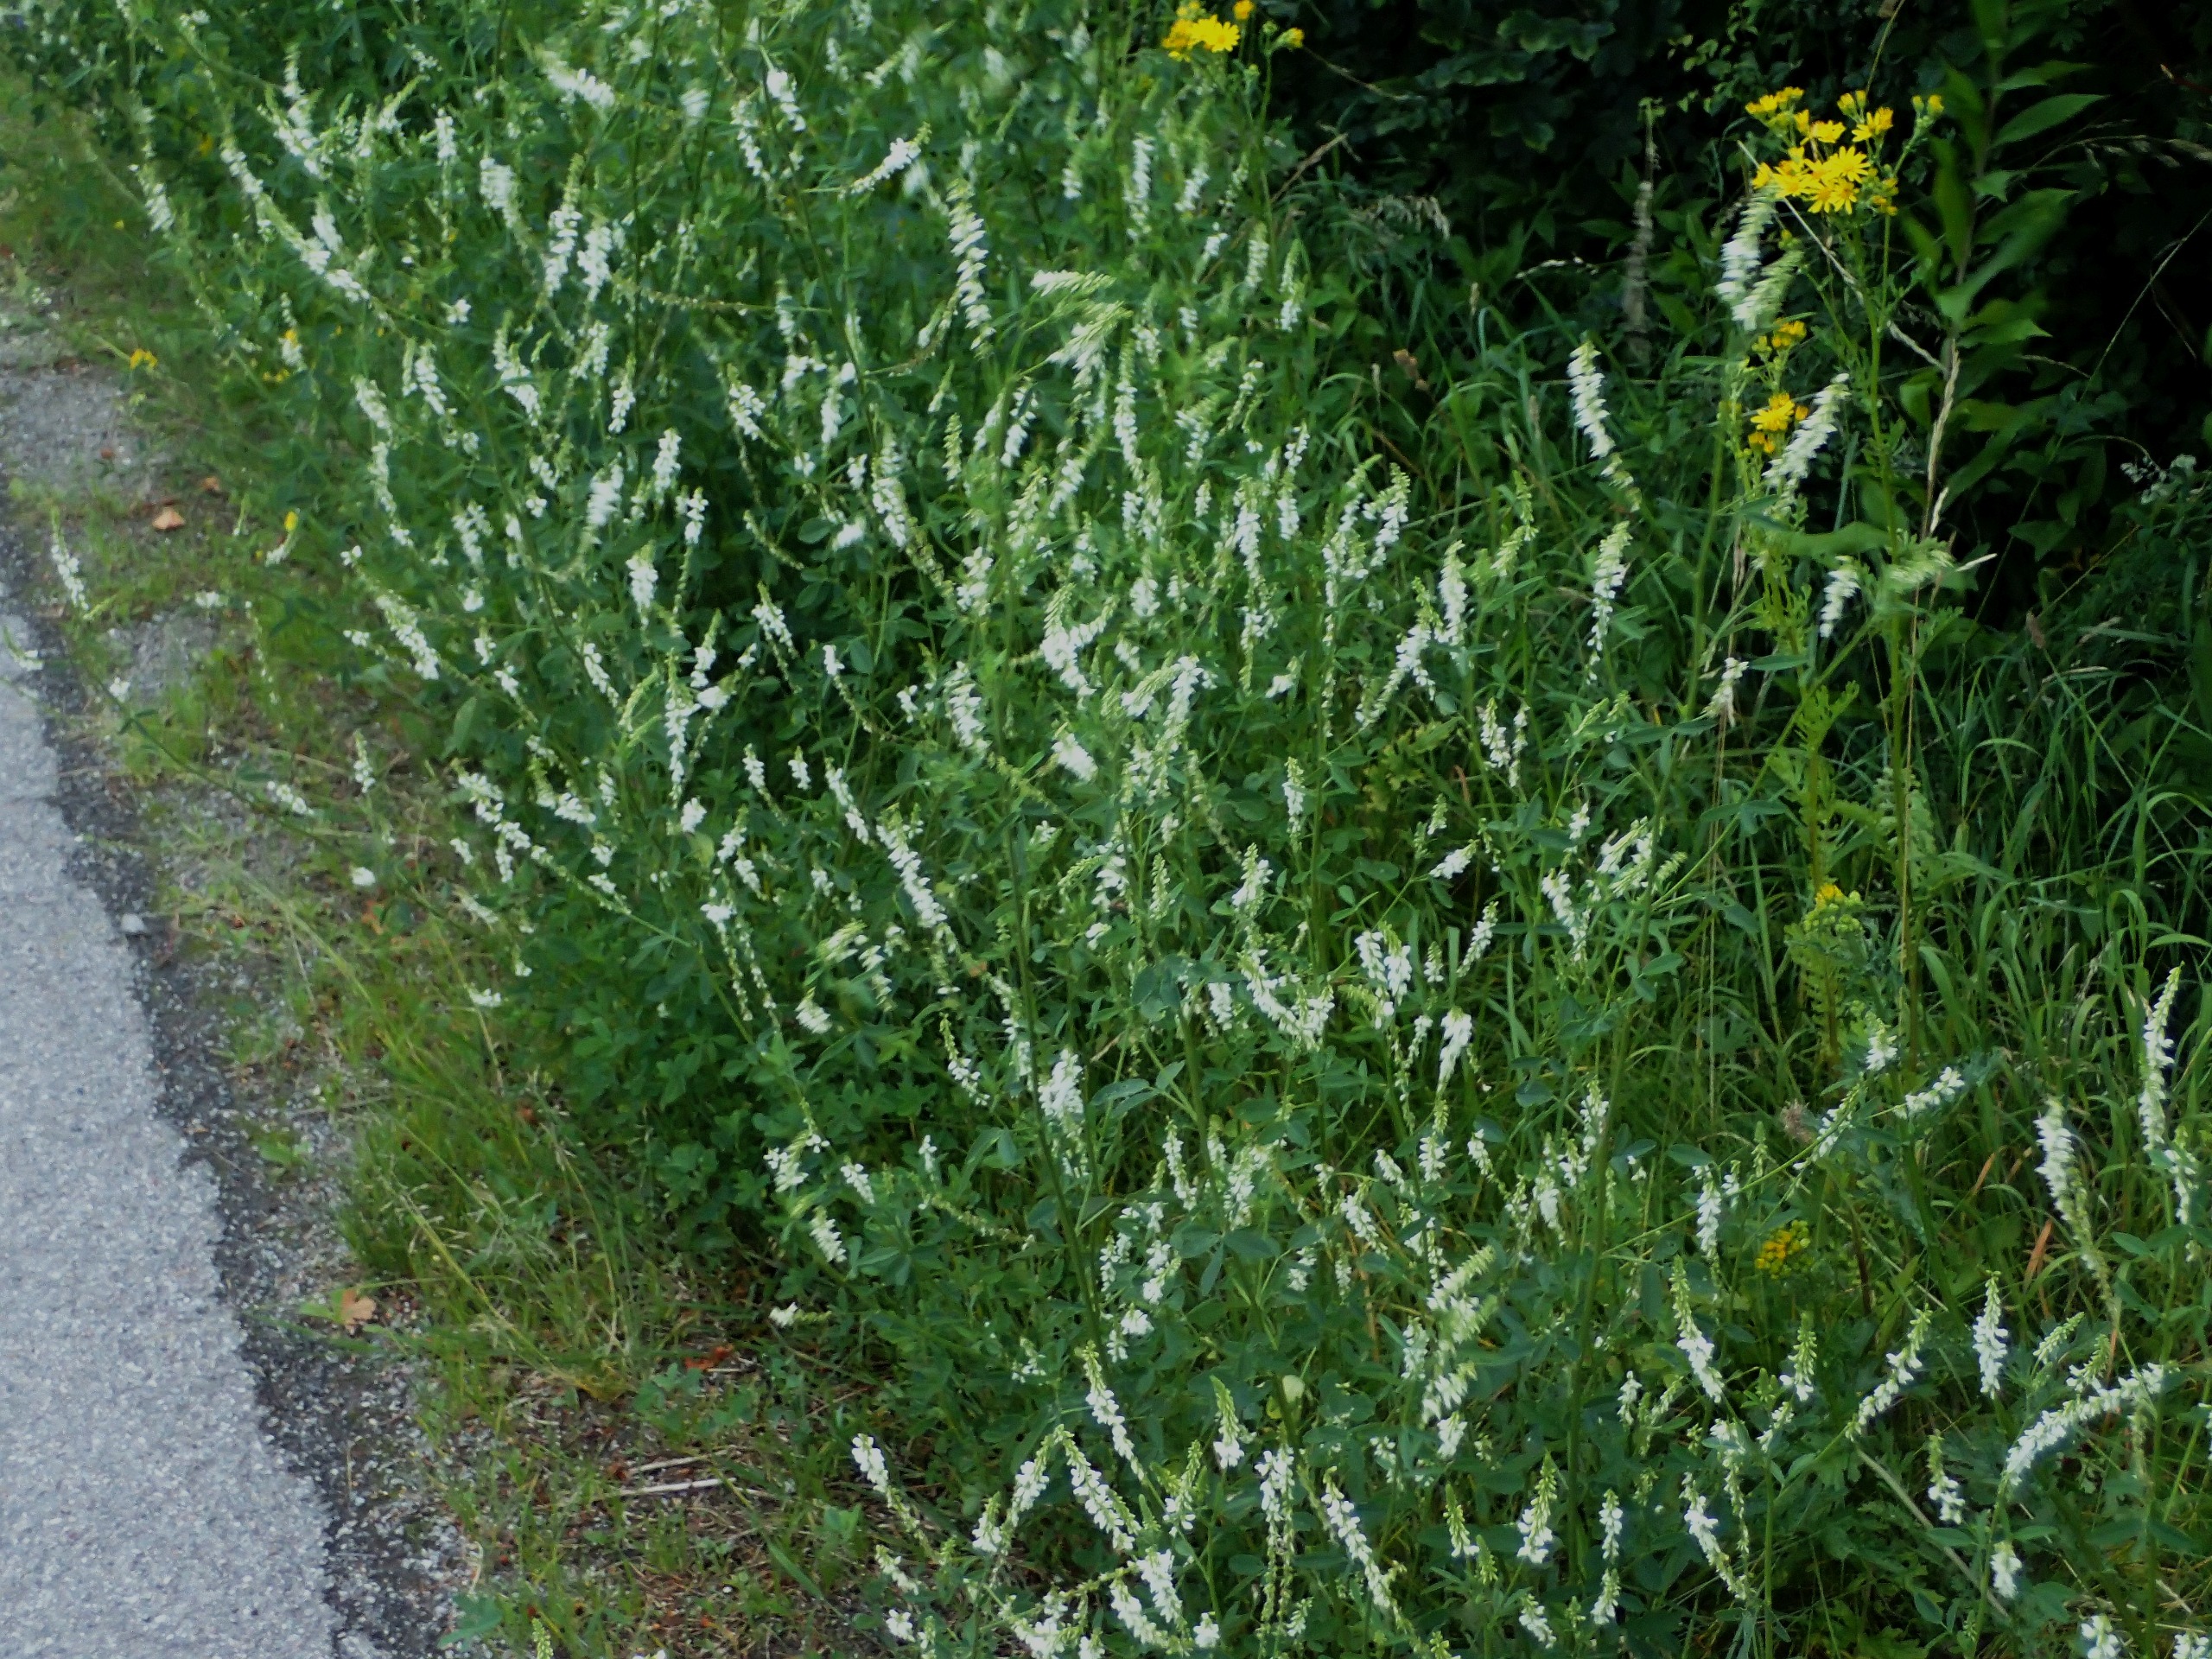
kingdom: Plantae
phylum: Tracheophyta
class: Magnoliopsida
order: Fabales
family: Fabaceae
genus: Melilotus
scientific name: Melilotus albus
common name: Hvid stenkløver
